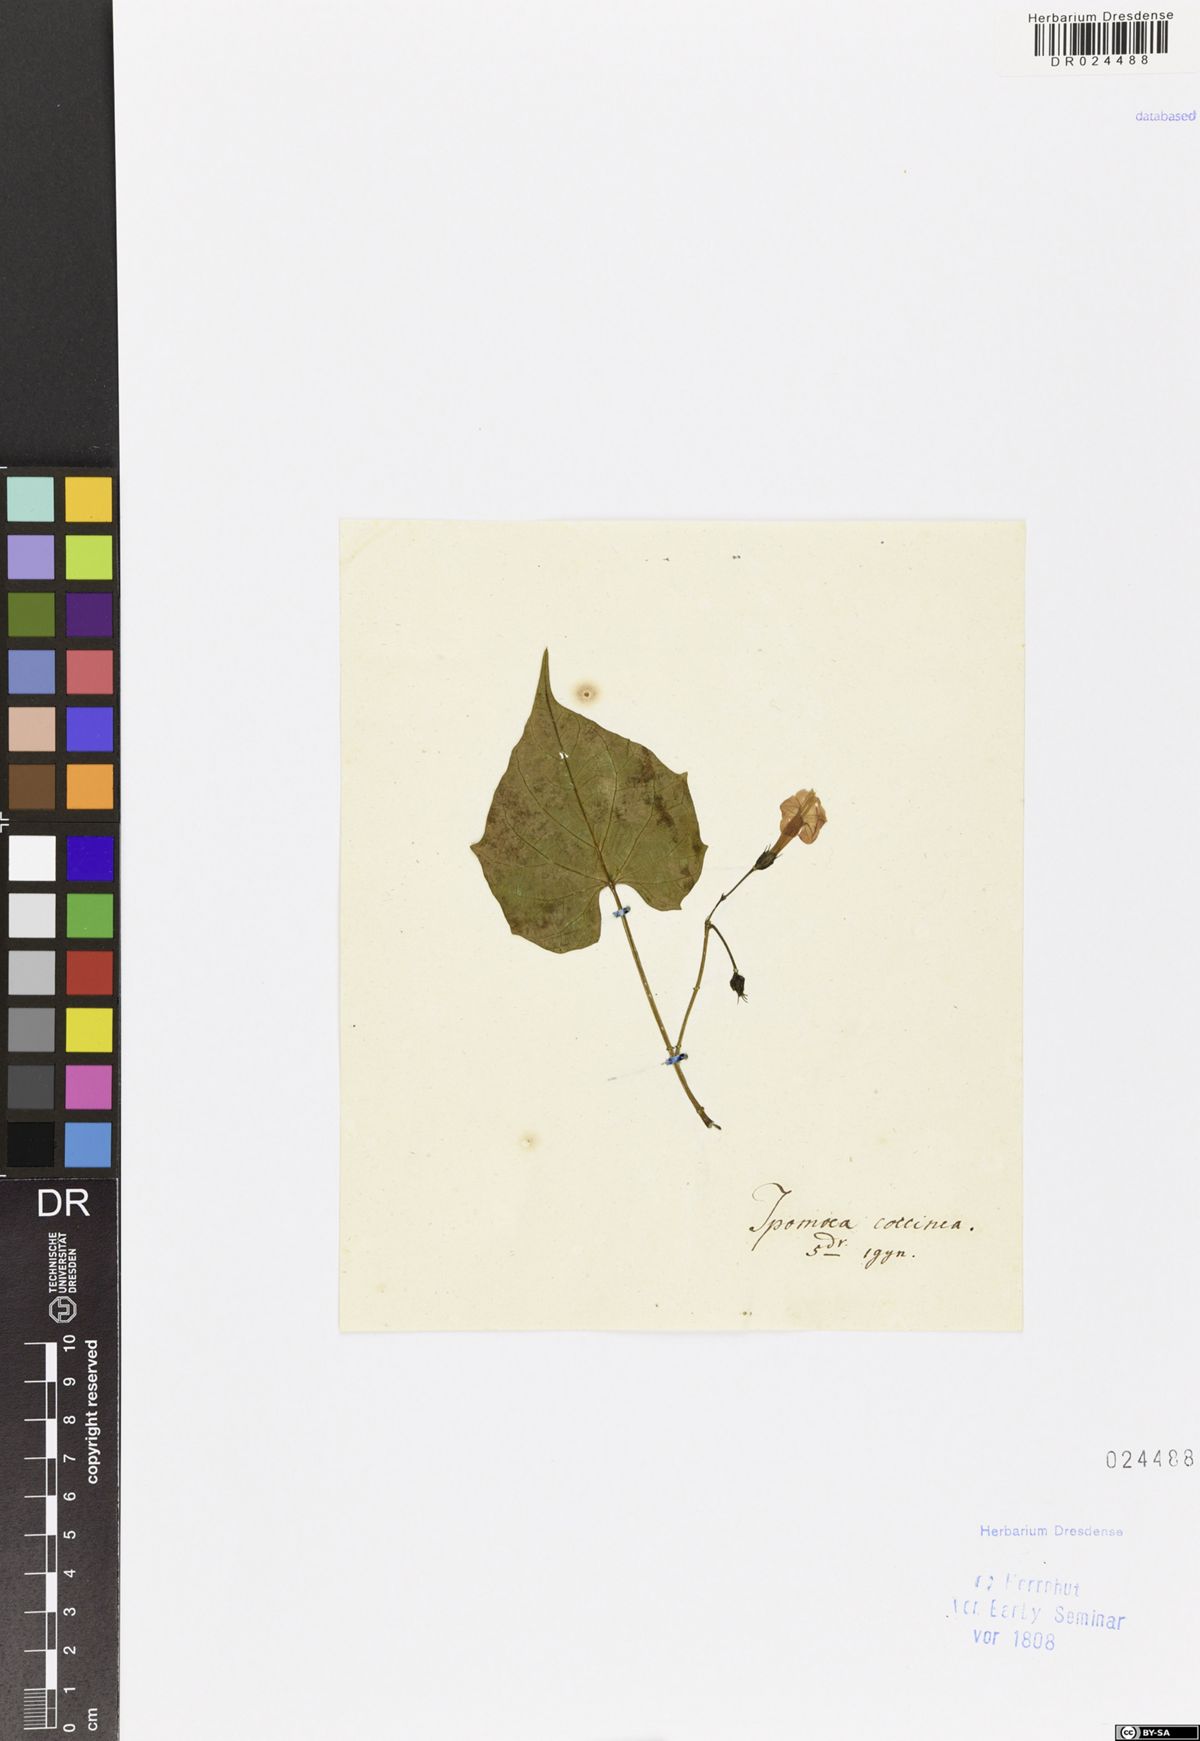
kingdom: Plantae
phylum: Tracheophyta
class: Magnoliopsida
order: Solanales
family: Convolvulaceae
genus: Ipomoea
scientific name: Ipomoea rubriflora
